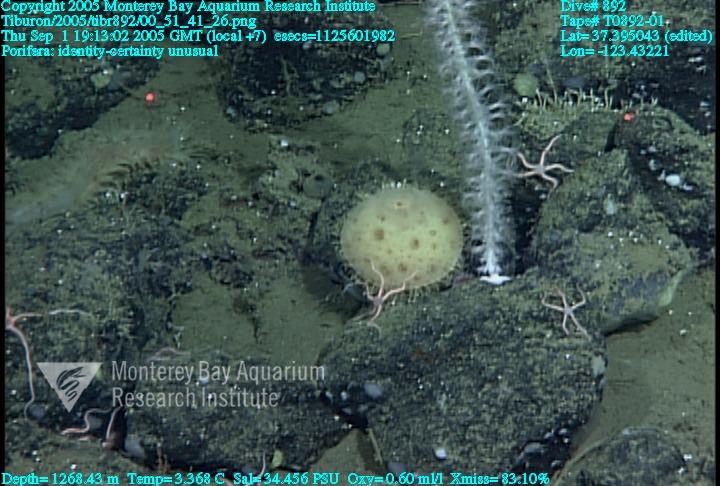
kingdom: Animalia
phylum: Porifera
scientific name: Porifera
